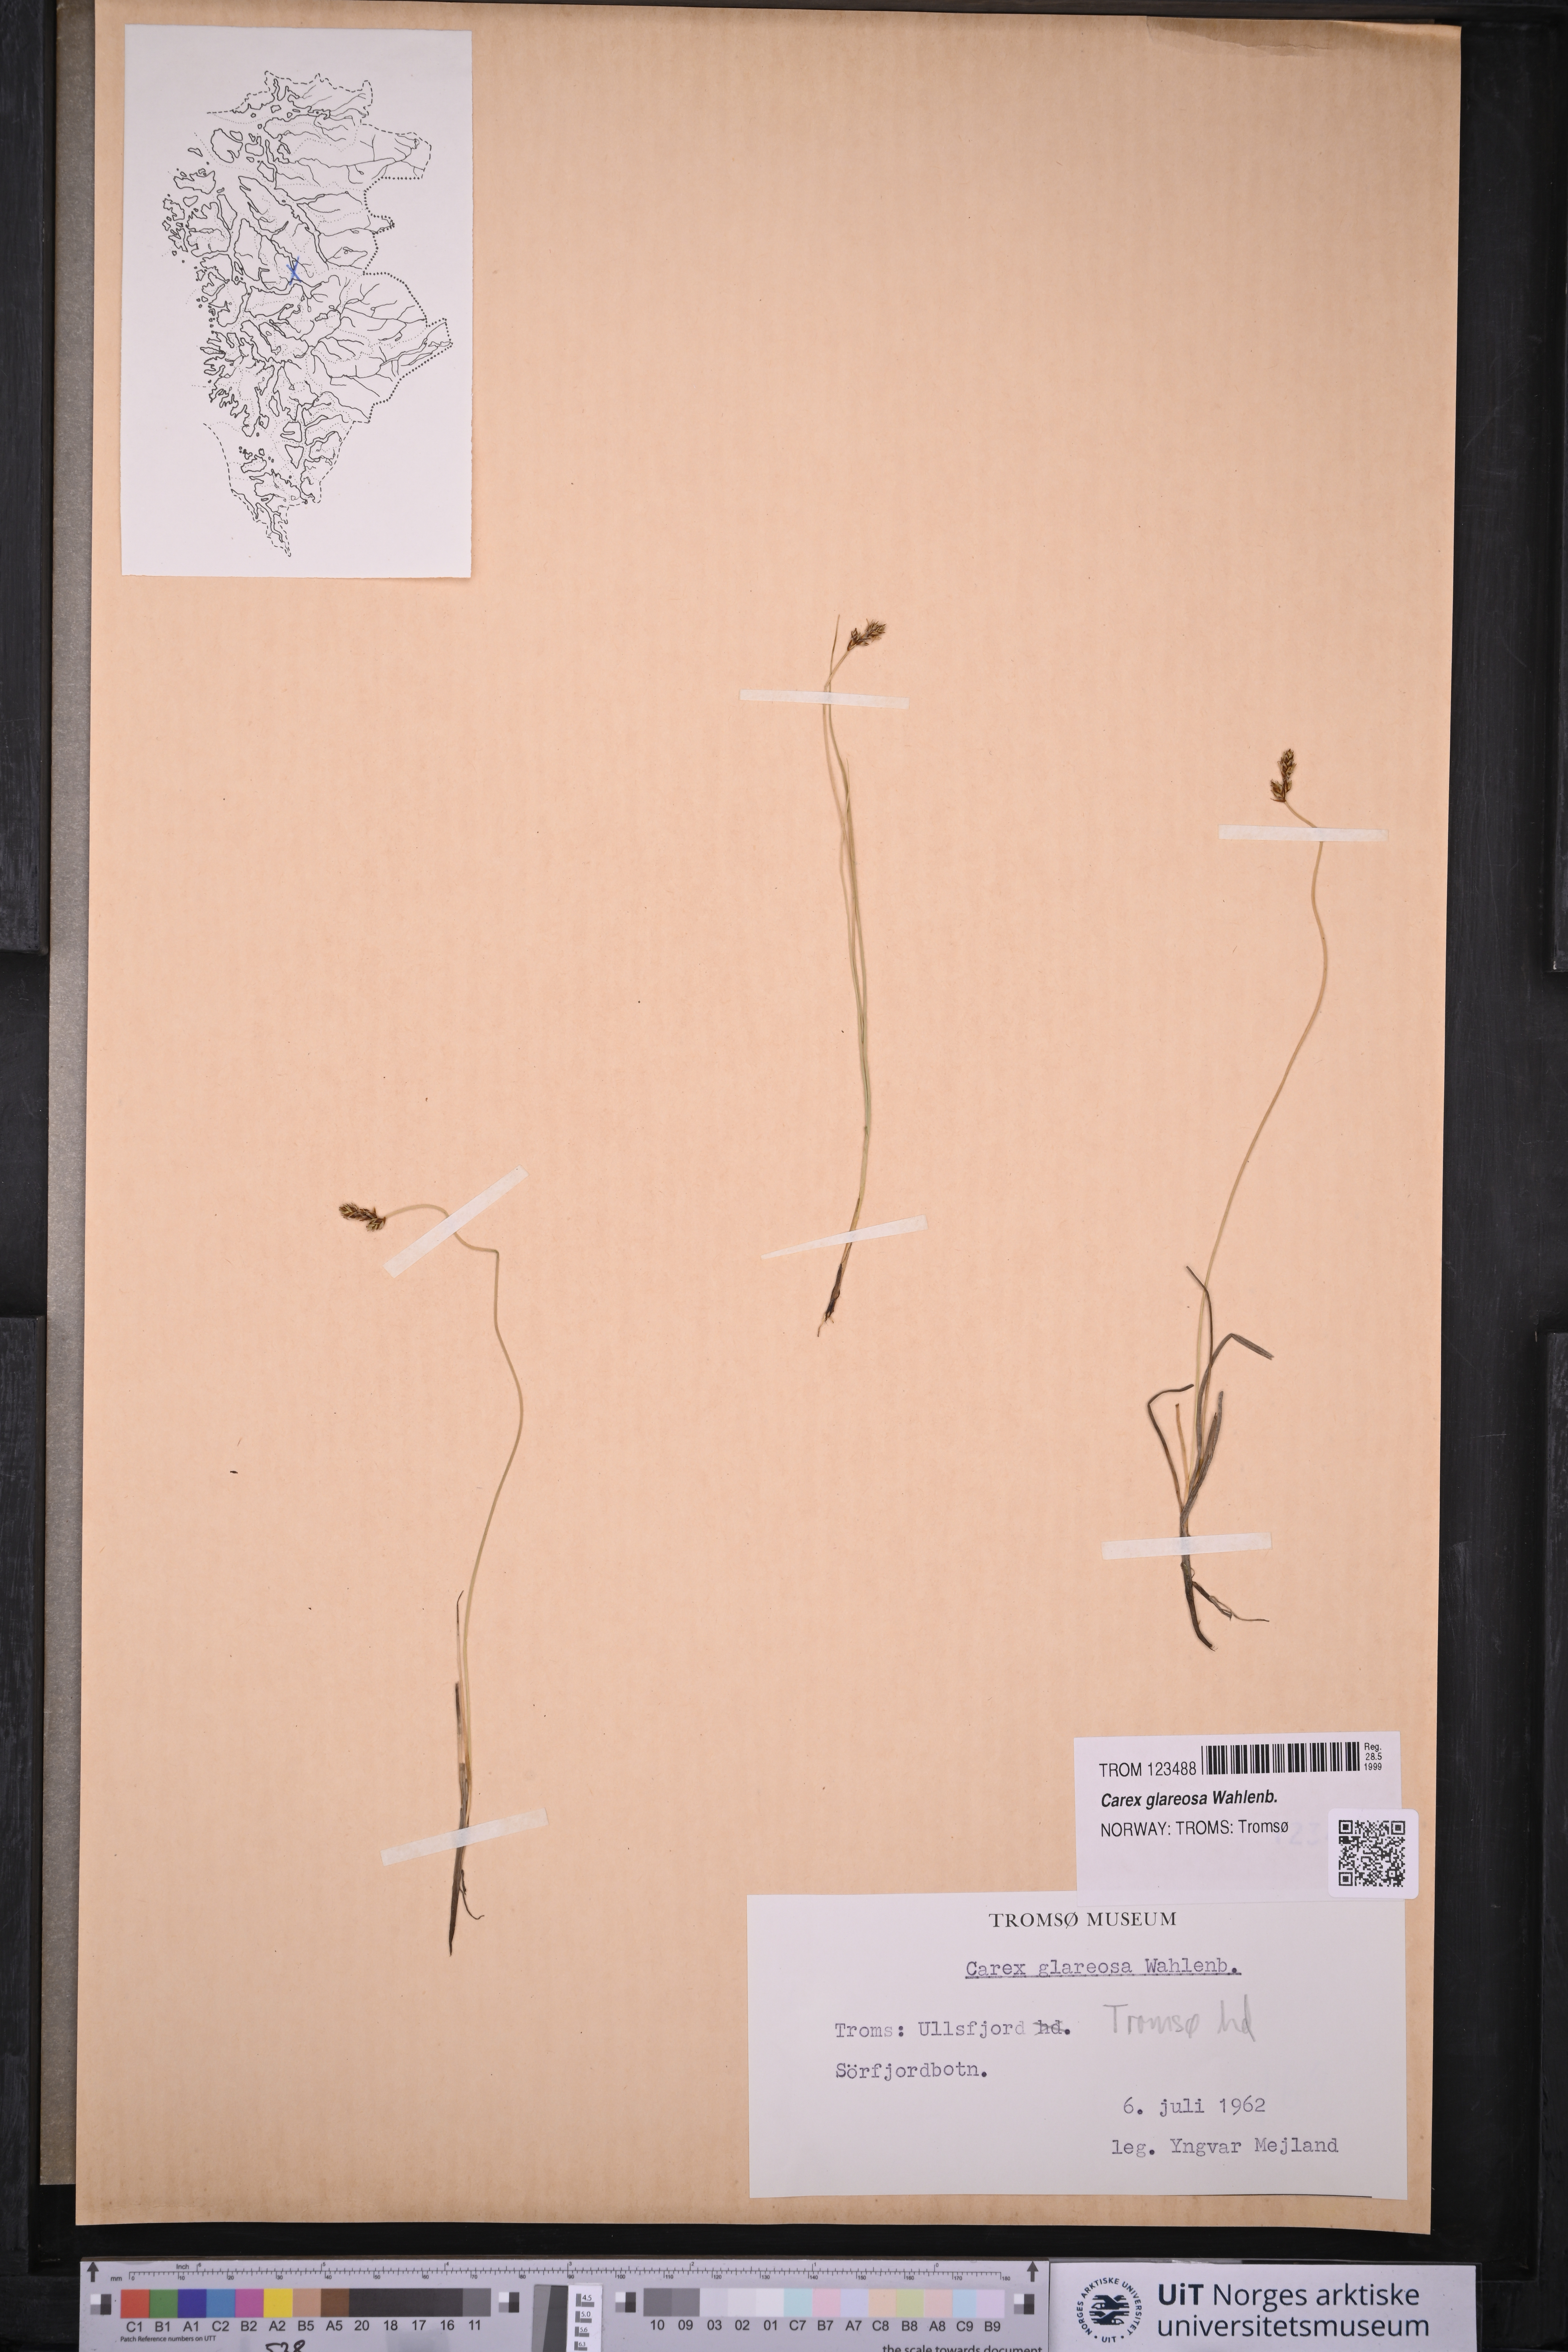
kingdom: Plantae
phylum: Tracheophyta
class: Liliopsida
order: Poales
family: Cyperaceae
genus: Carex
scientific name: Carex glareosa
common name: Clustered sedge
